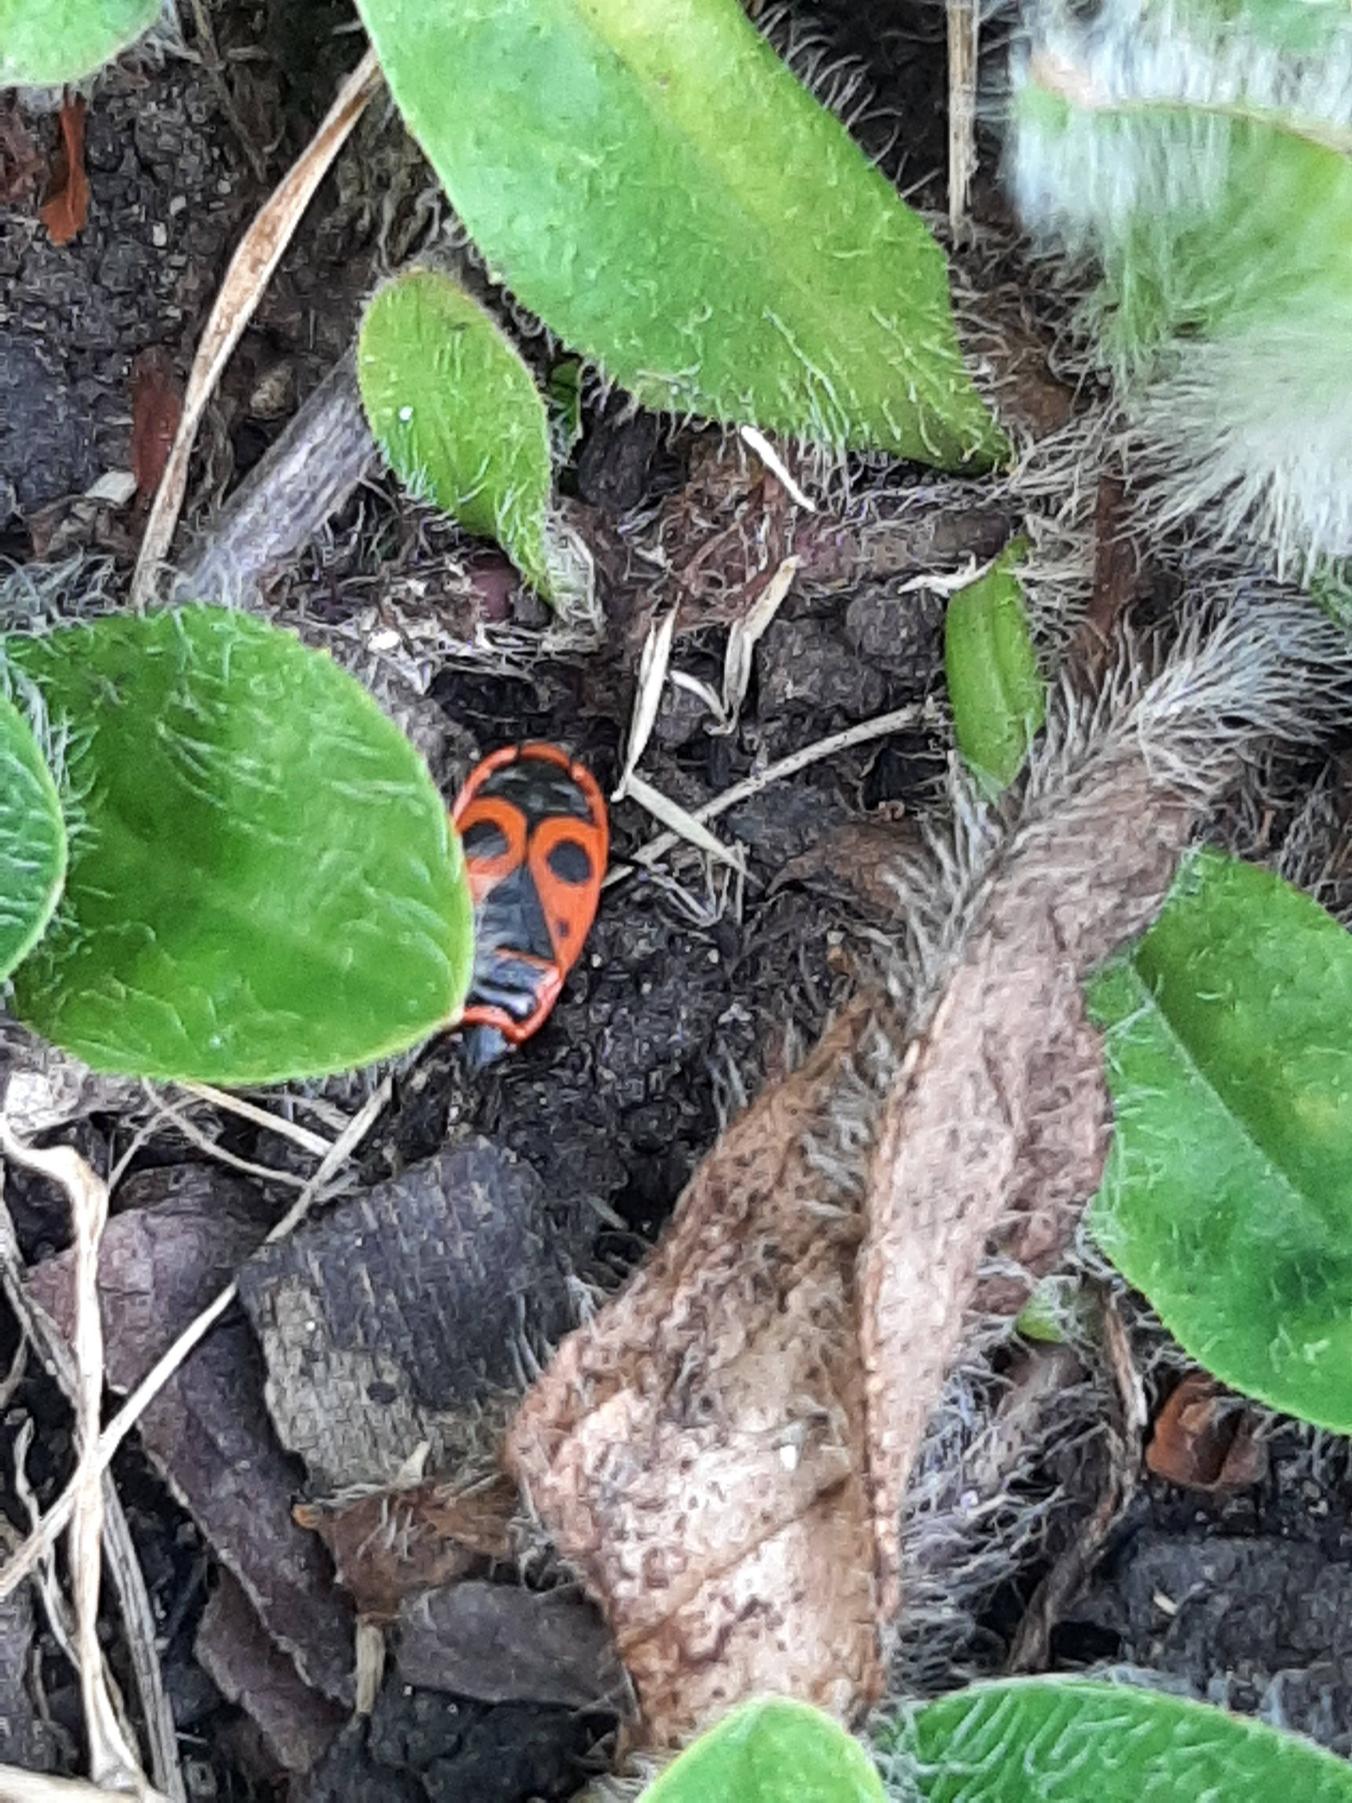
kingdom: Animalia
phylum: Arthropoda
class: Insecta
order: Hemiptera
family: Pyrrhocoridae
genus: Pyrrhocoris
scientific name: Pyrrhocoris apterus
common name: Ildtæge
